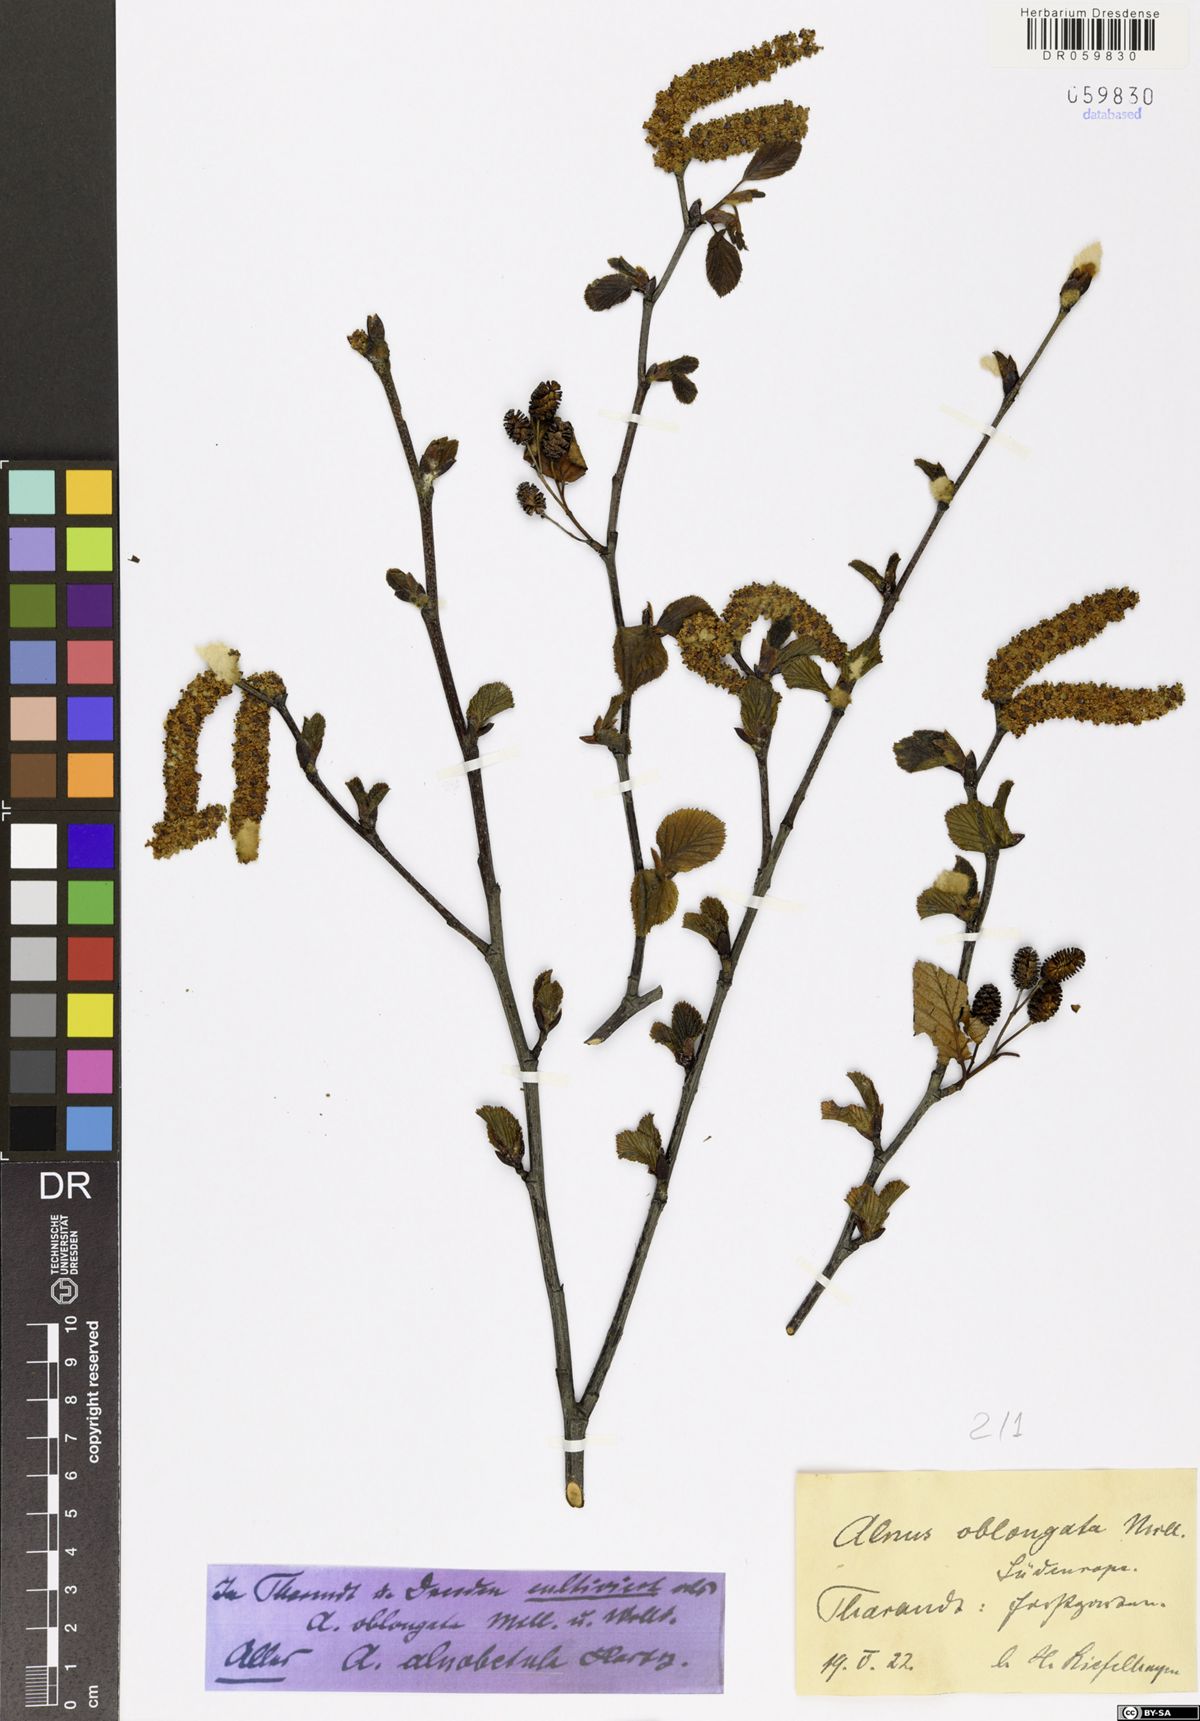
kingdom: Plantae
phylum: Tracheophyta
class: Magnoliopsida
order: Fagales
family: Betulaceae
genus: Alnus
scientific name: Alnus alnobetula
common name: Green alder
